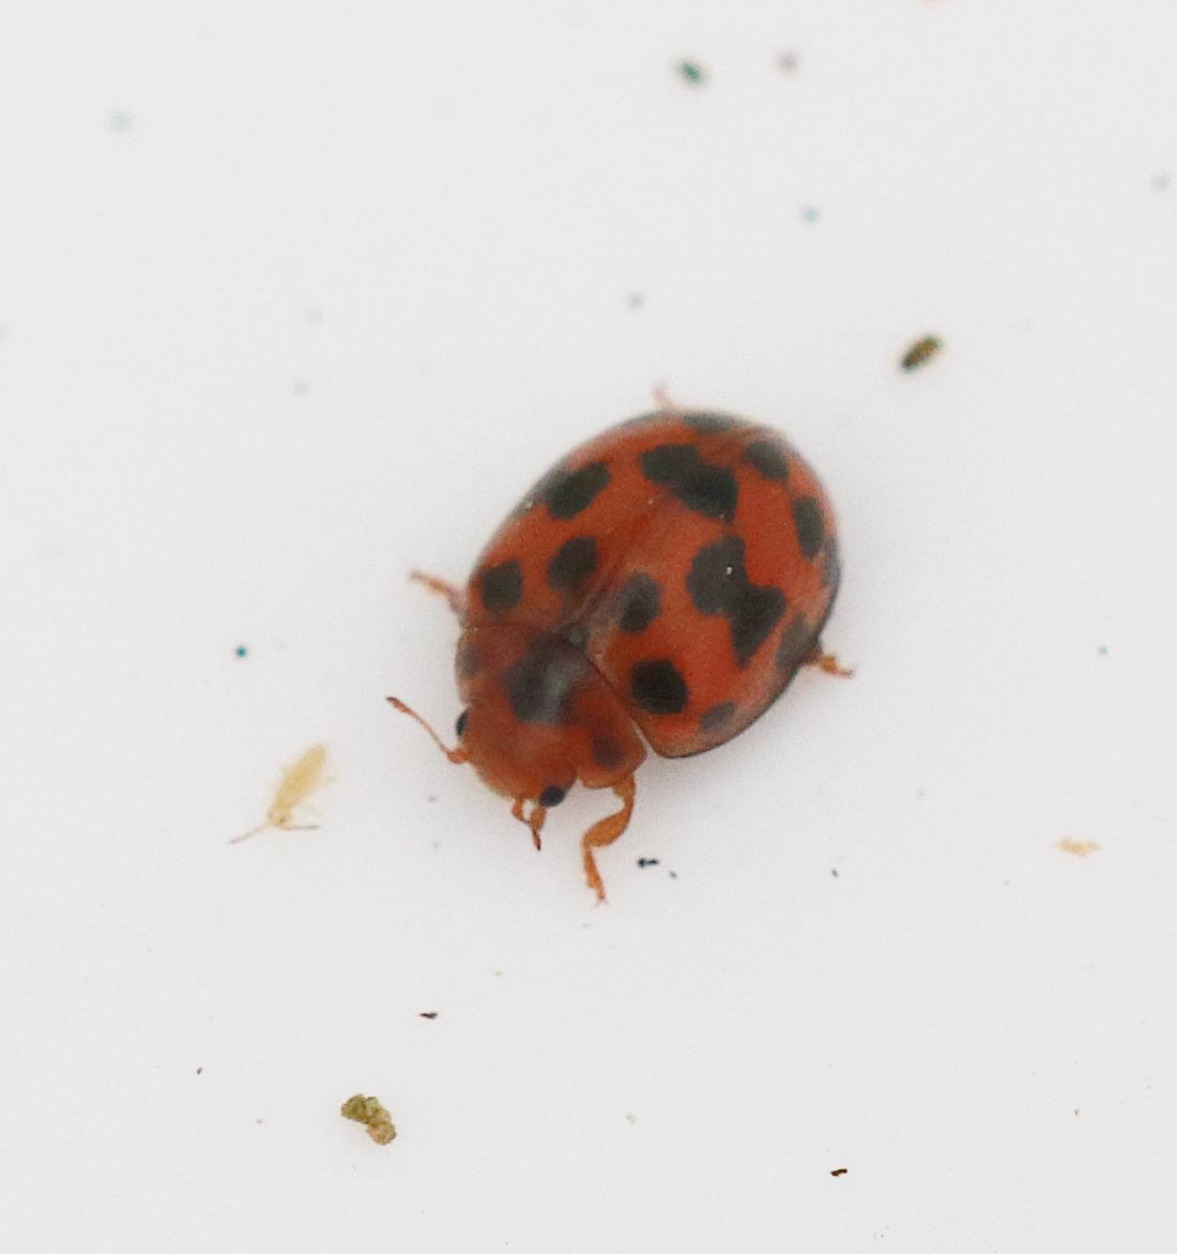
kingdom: Animalia
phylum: Arthropoda
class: Insecta
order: Coleoptera
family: Coccinellidae
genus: Subcoccinella
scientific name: Subcoccinella vigintiquatuorpunctata
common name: Fireogtyveplettet mariehøne
